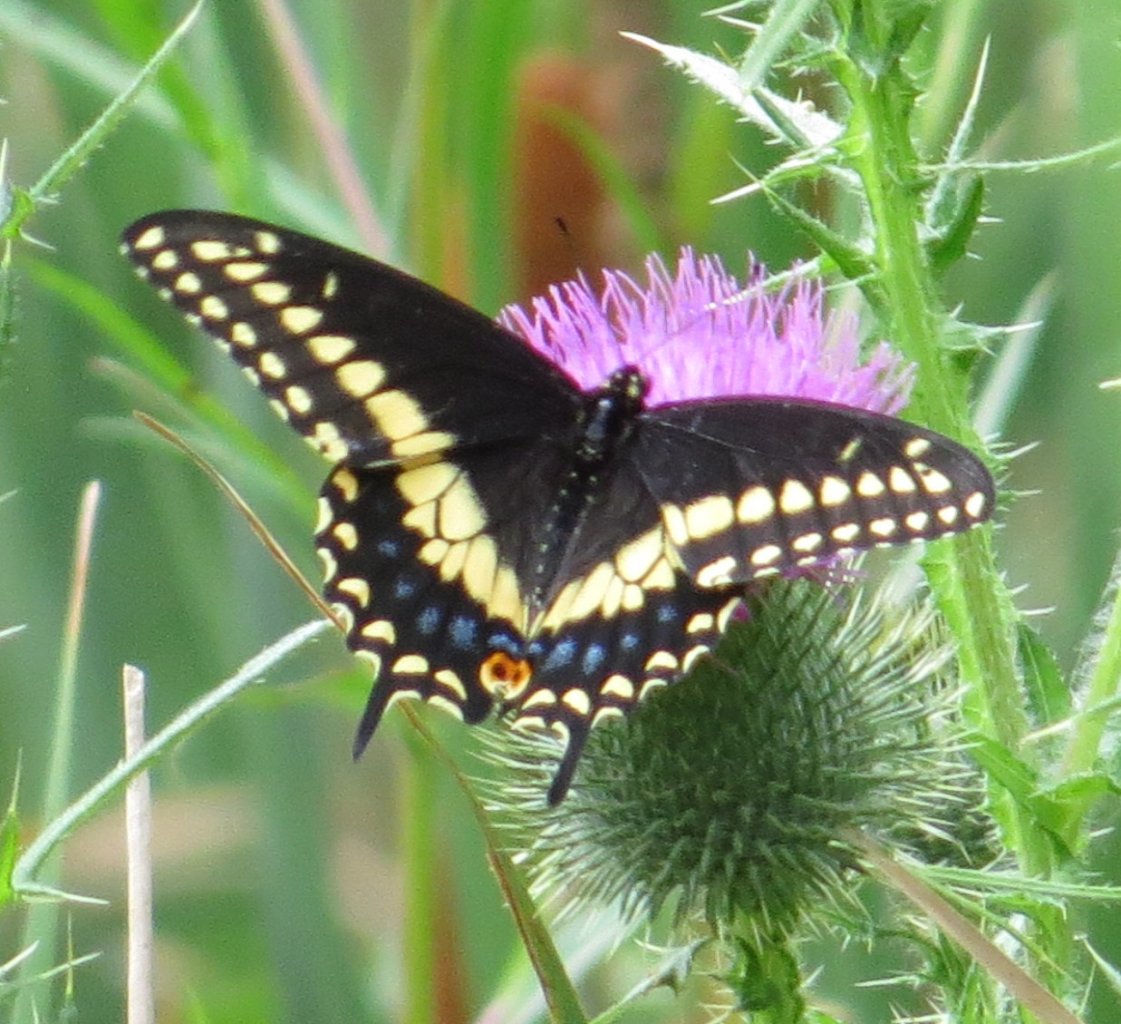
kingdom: Animalia
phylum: Arthropoda
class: Insecta
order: Lepidoptera
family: Papilionidae
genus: Papilio
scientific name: Papilio polyxenes
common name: Black Swallowtail
